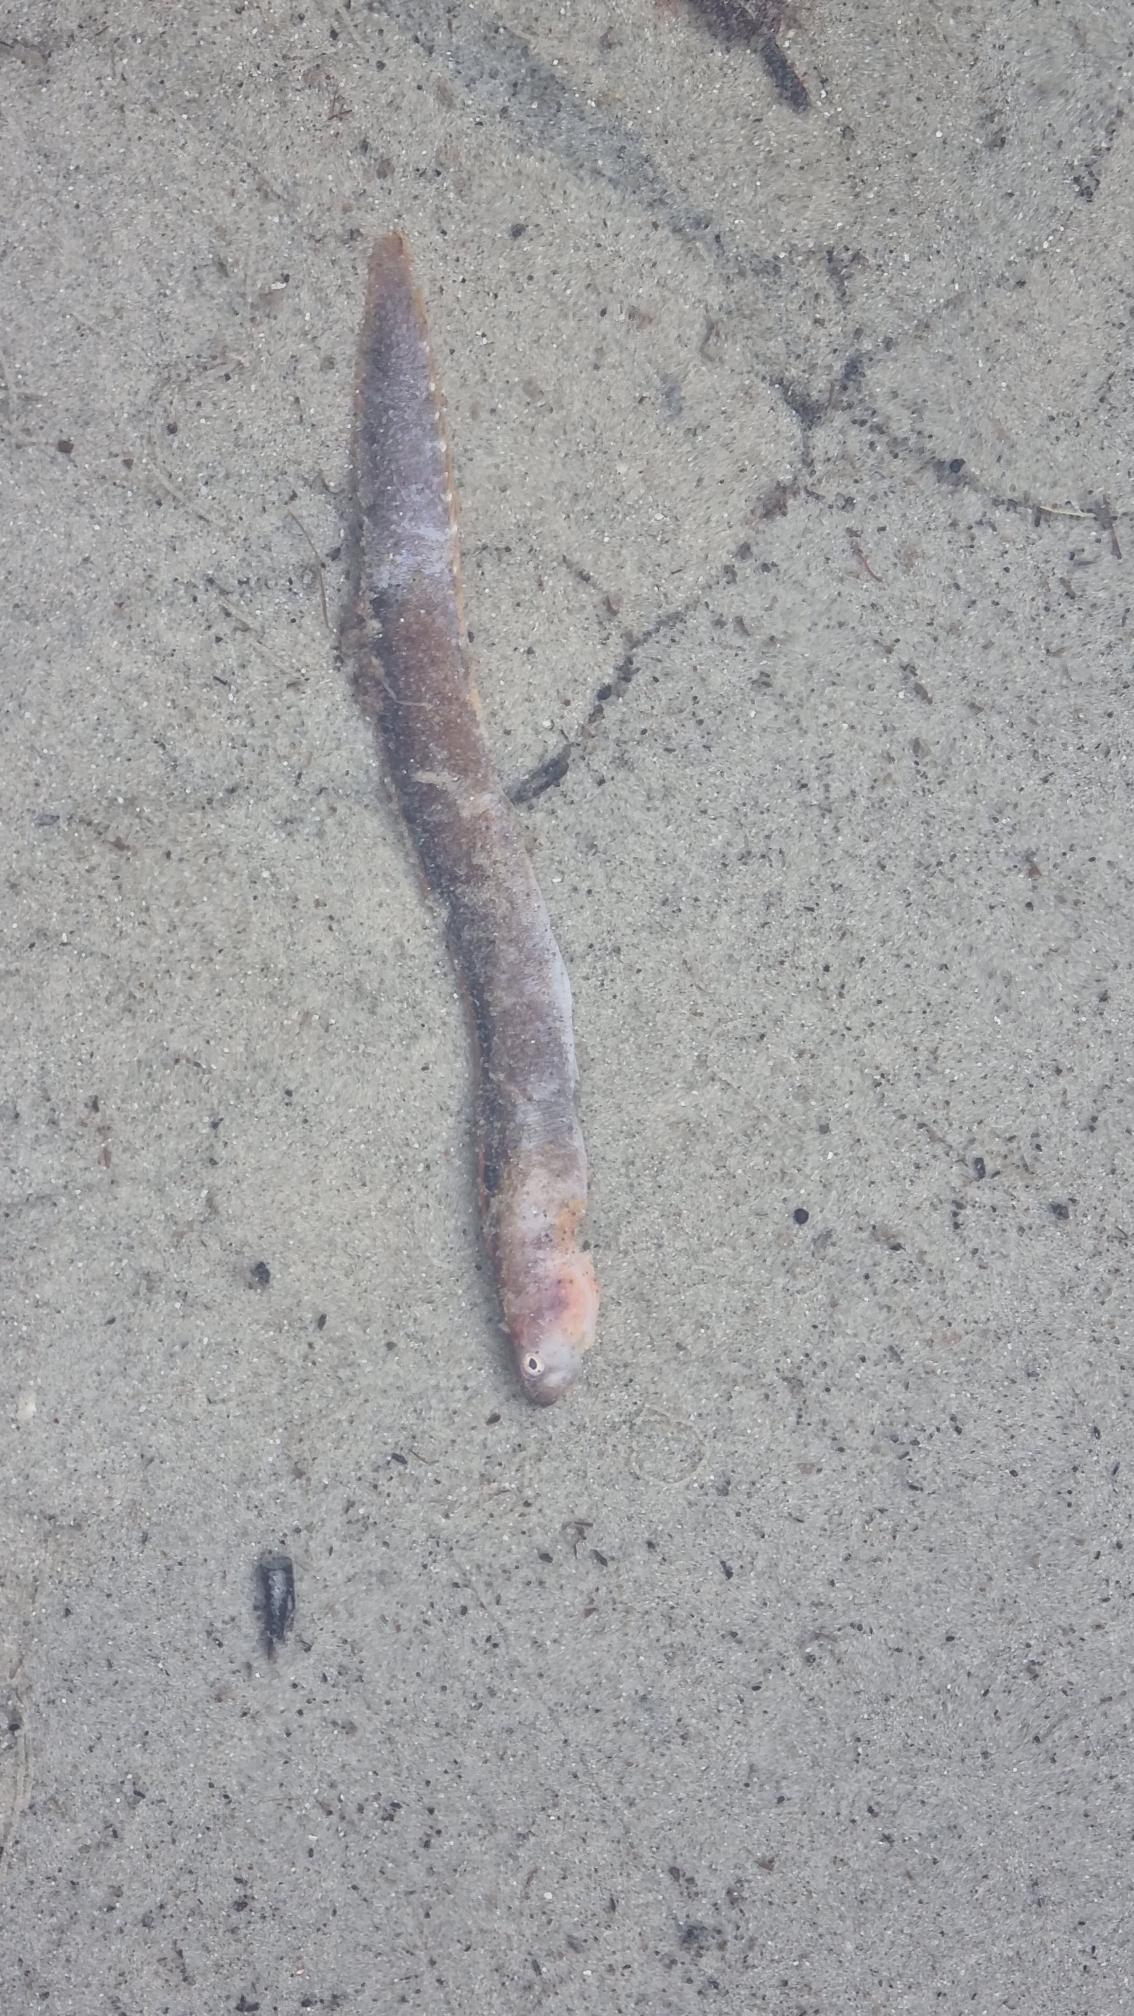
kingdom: Animalia
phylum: Chordata
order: Perciformes
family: Pholidae
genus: Pholis
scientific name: Pholis gunnellus
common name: Tangspræl
